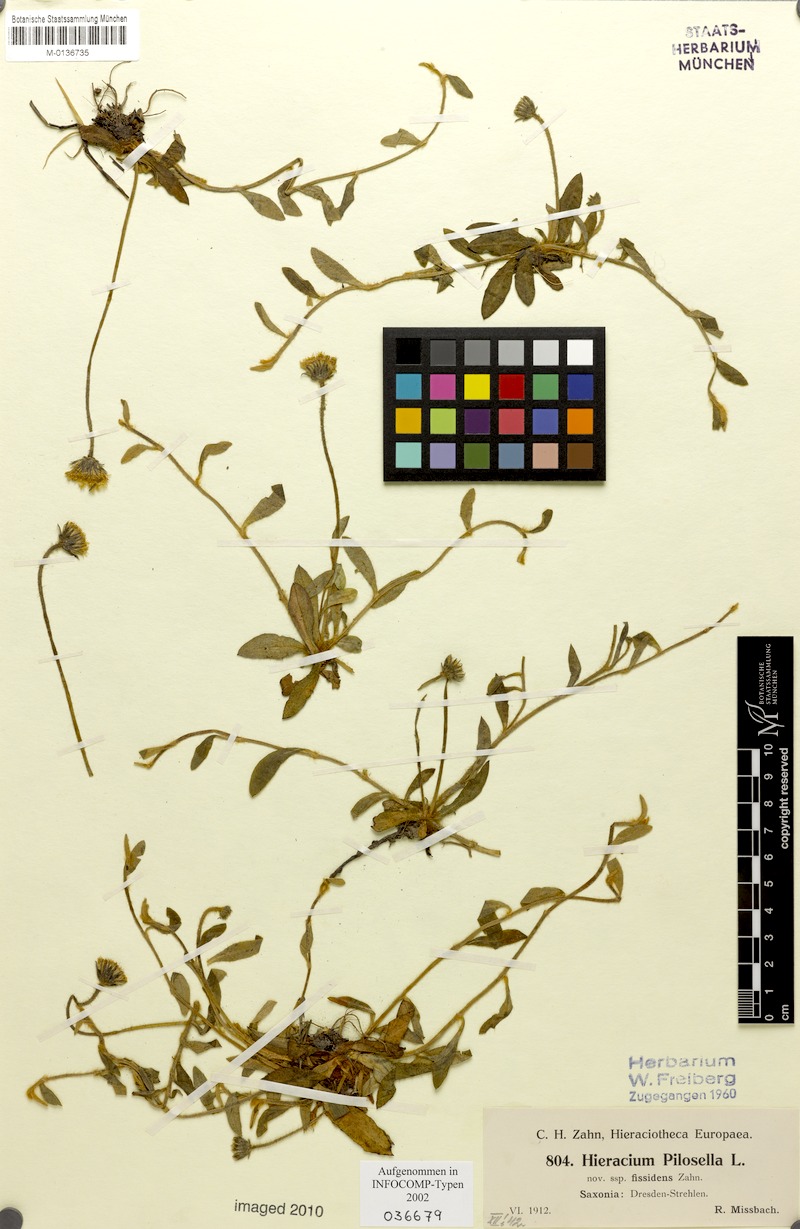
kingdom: Plantae
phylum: Tracheophyta
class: Magnoliopsida
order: Asterales
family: Asteraceae
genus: Pilosella
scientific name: Pilosella officinarum
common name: Mouse-ear hawkweed
